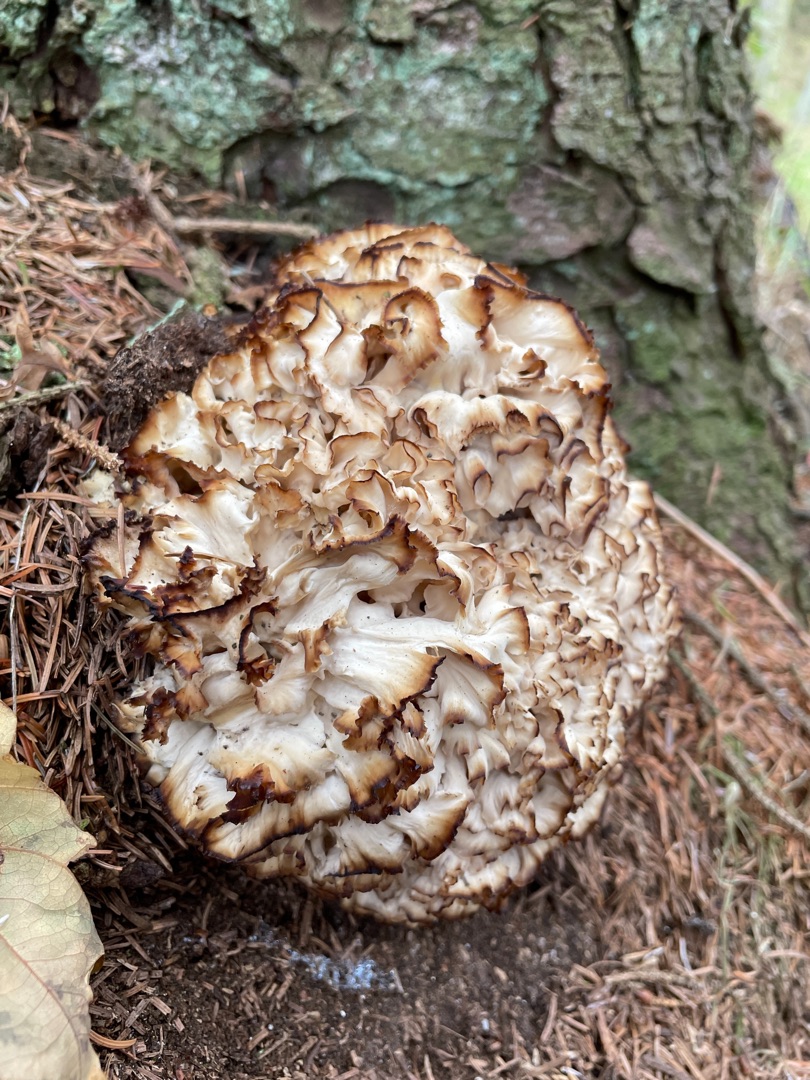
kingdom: Fungi
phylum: Basidiomycota
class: Agaricomycetes
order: Polyporales
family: Sparassidaceae
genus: Sparassis
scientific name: Sparassis crispa
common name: Kruset blomkålssvamp
